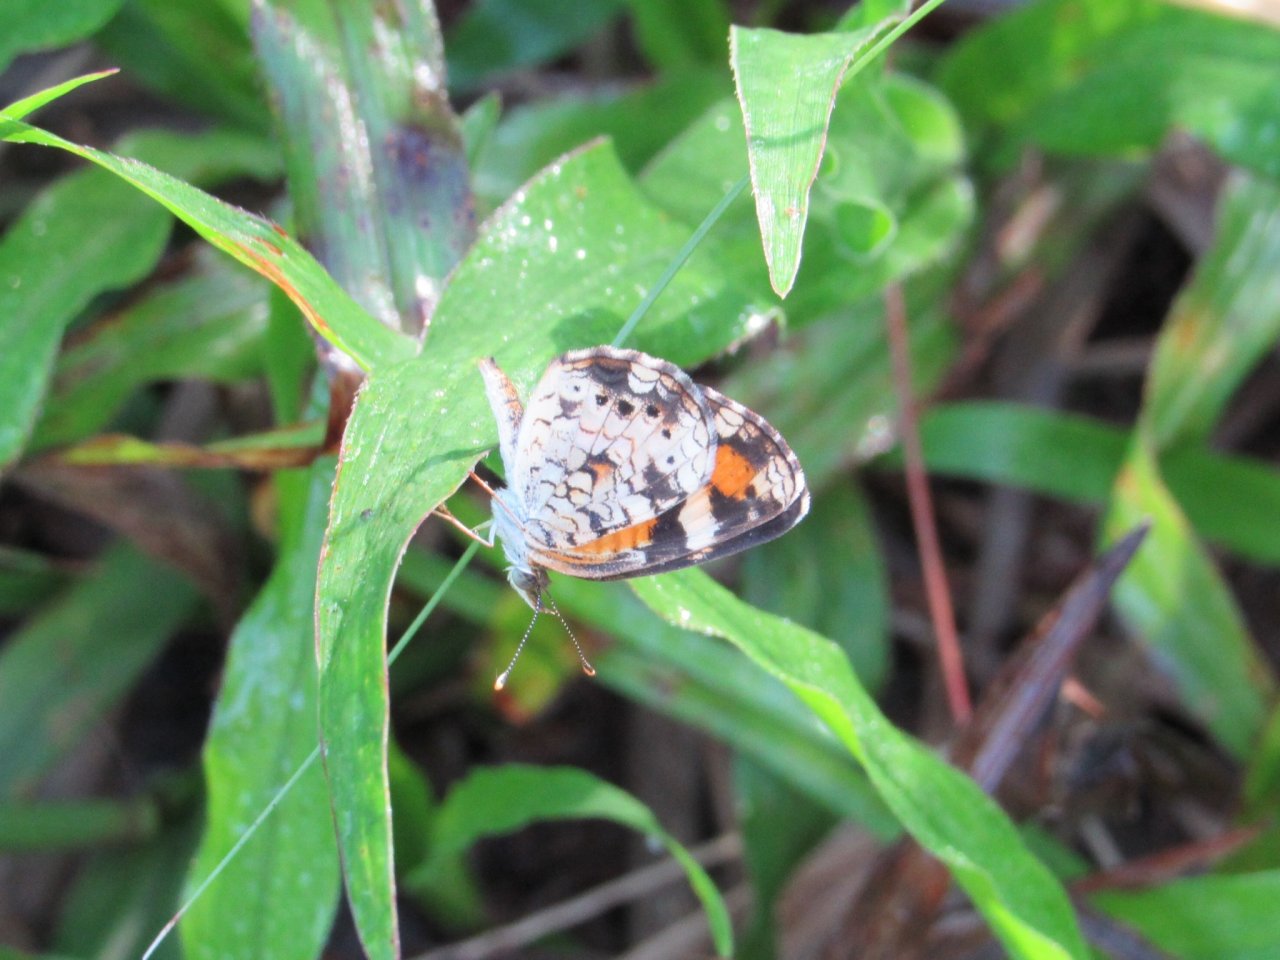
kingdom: Animalia
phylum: Arthropoda
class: Insecta
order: Lepidoptera
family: Nymphalidae
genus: Phyciodes
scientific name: Phyciodes phaon
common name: Phaon Crescent
